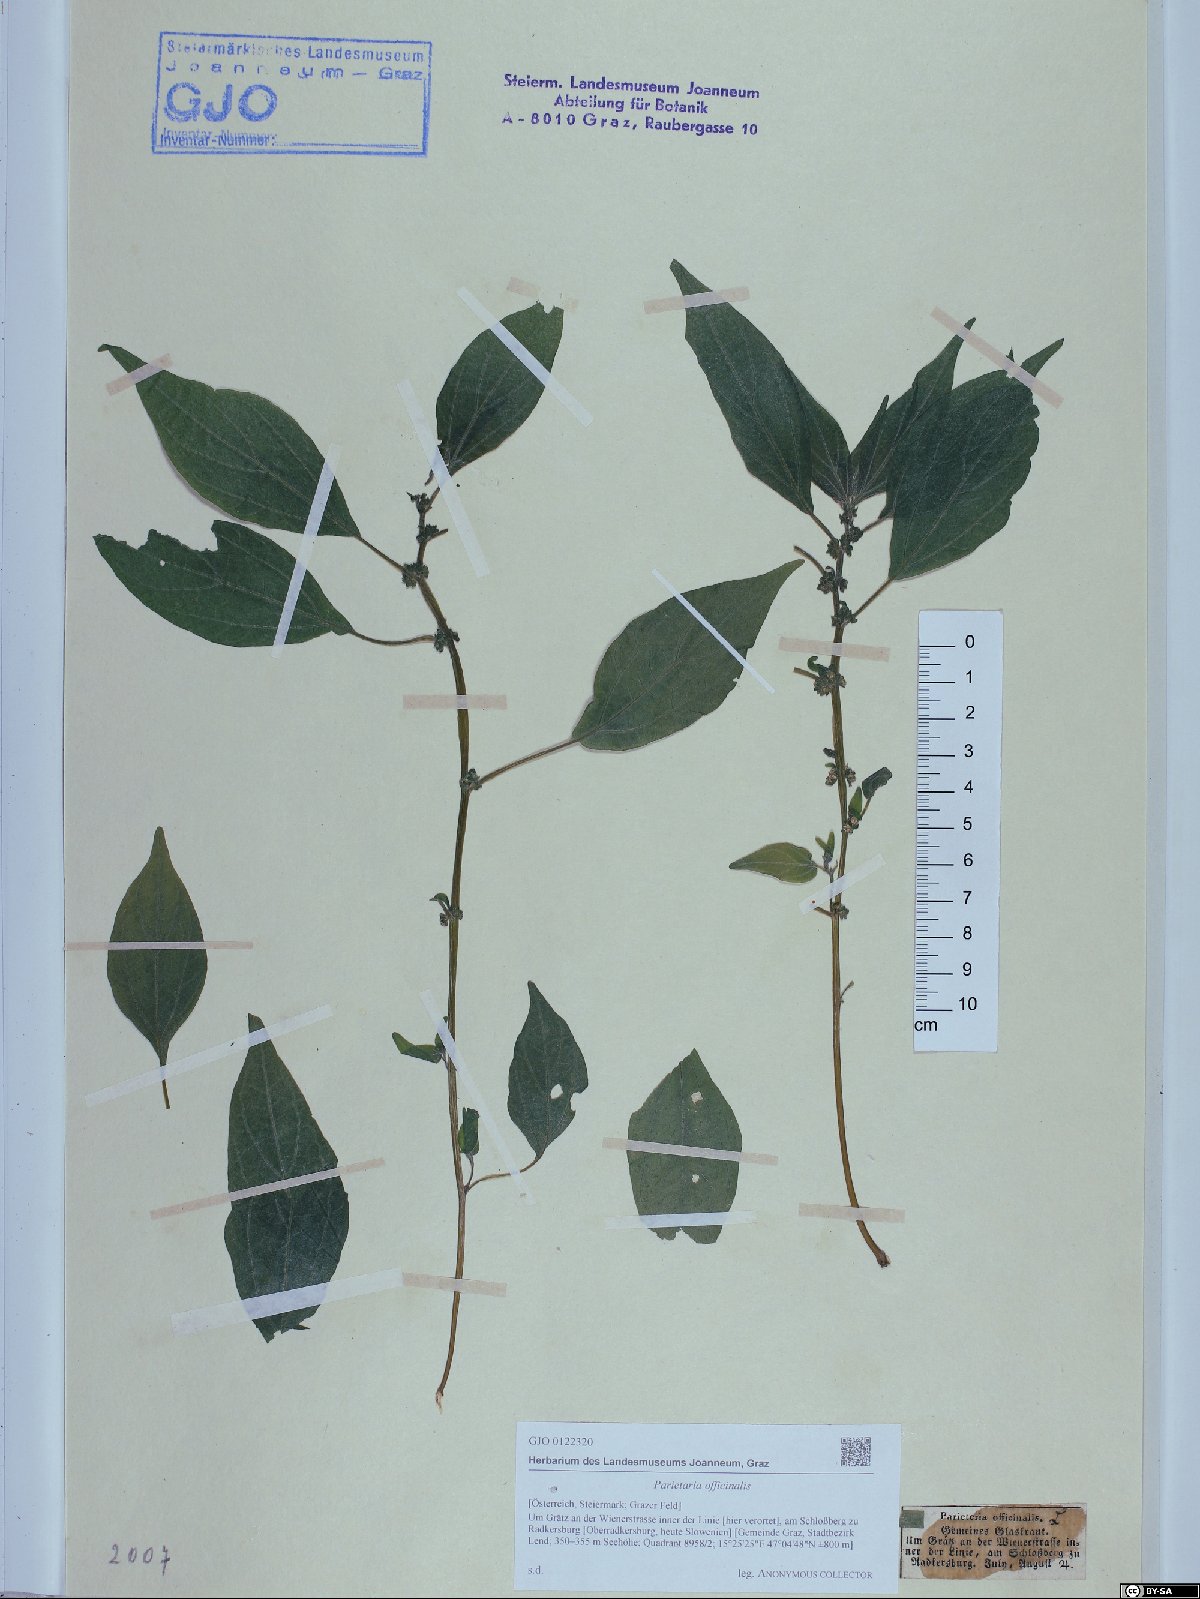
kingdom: Plantae
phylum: Tracheophyta
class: Magnoliopsida
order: Rosales
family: Urticaceae
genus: Parietaria
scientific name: Parietaria officinalis
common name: Eastern pellitory-of-the-wall
